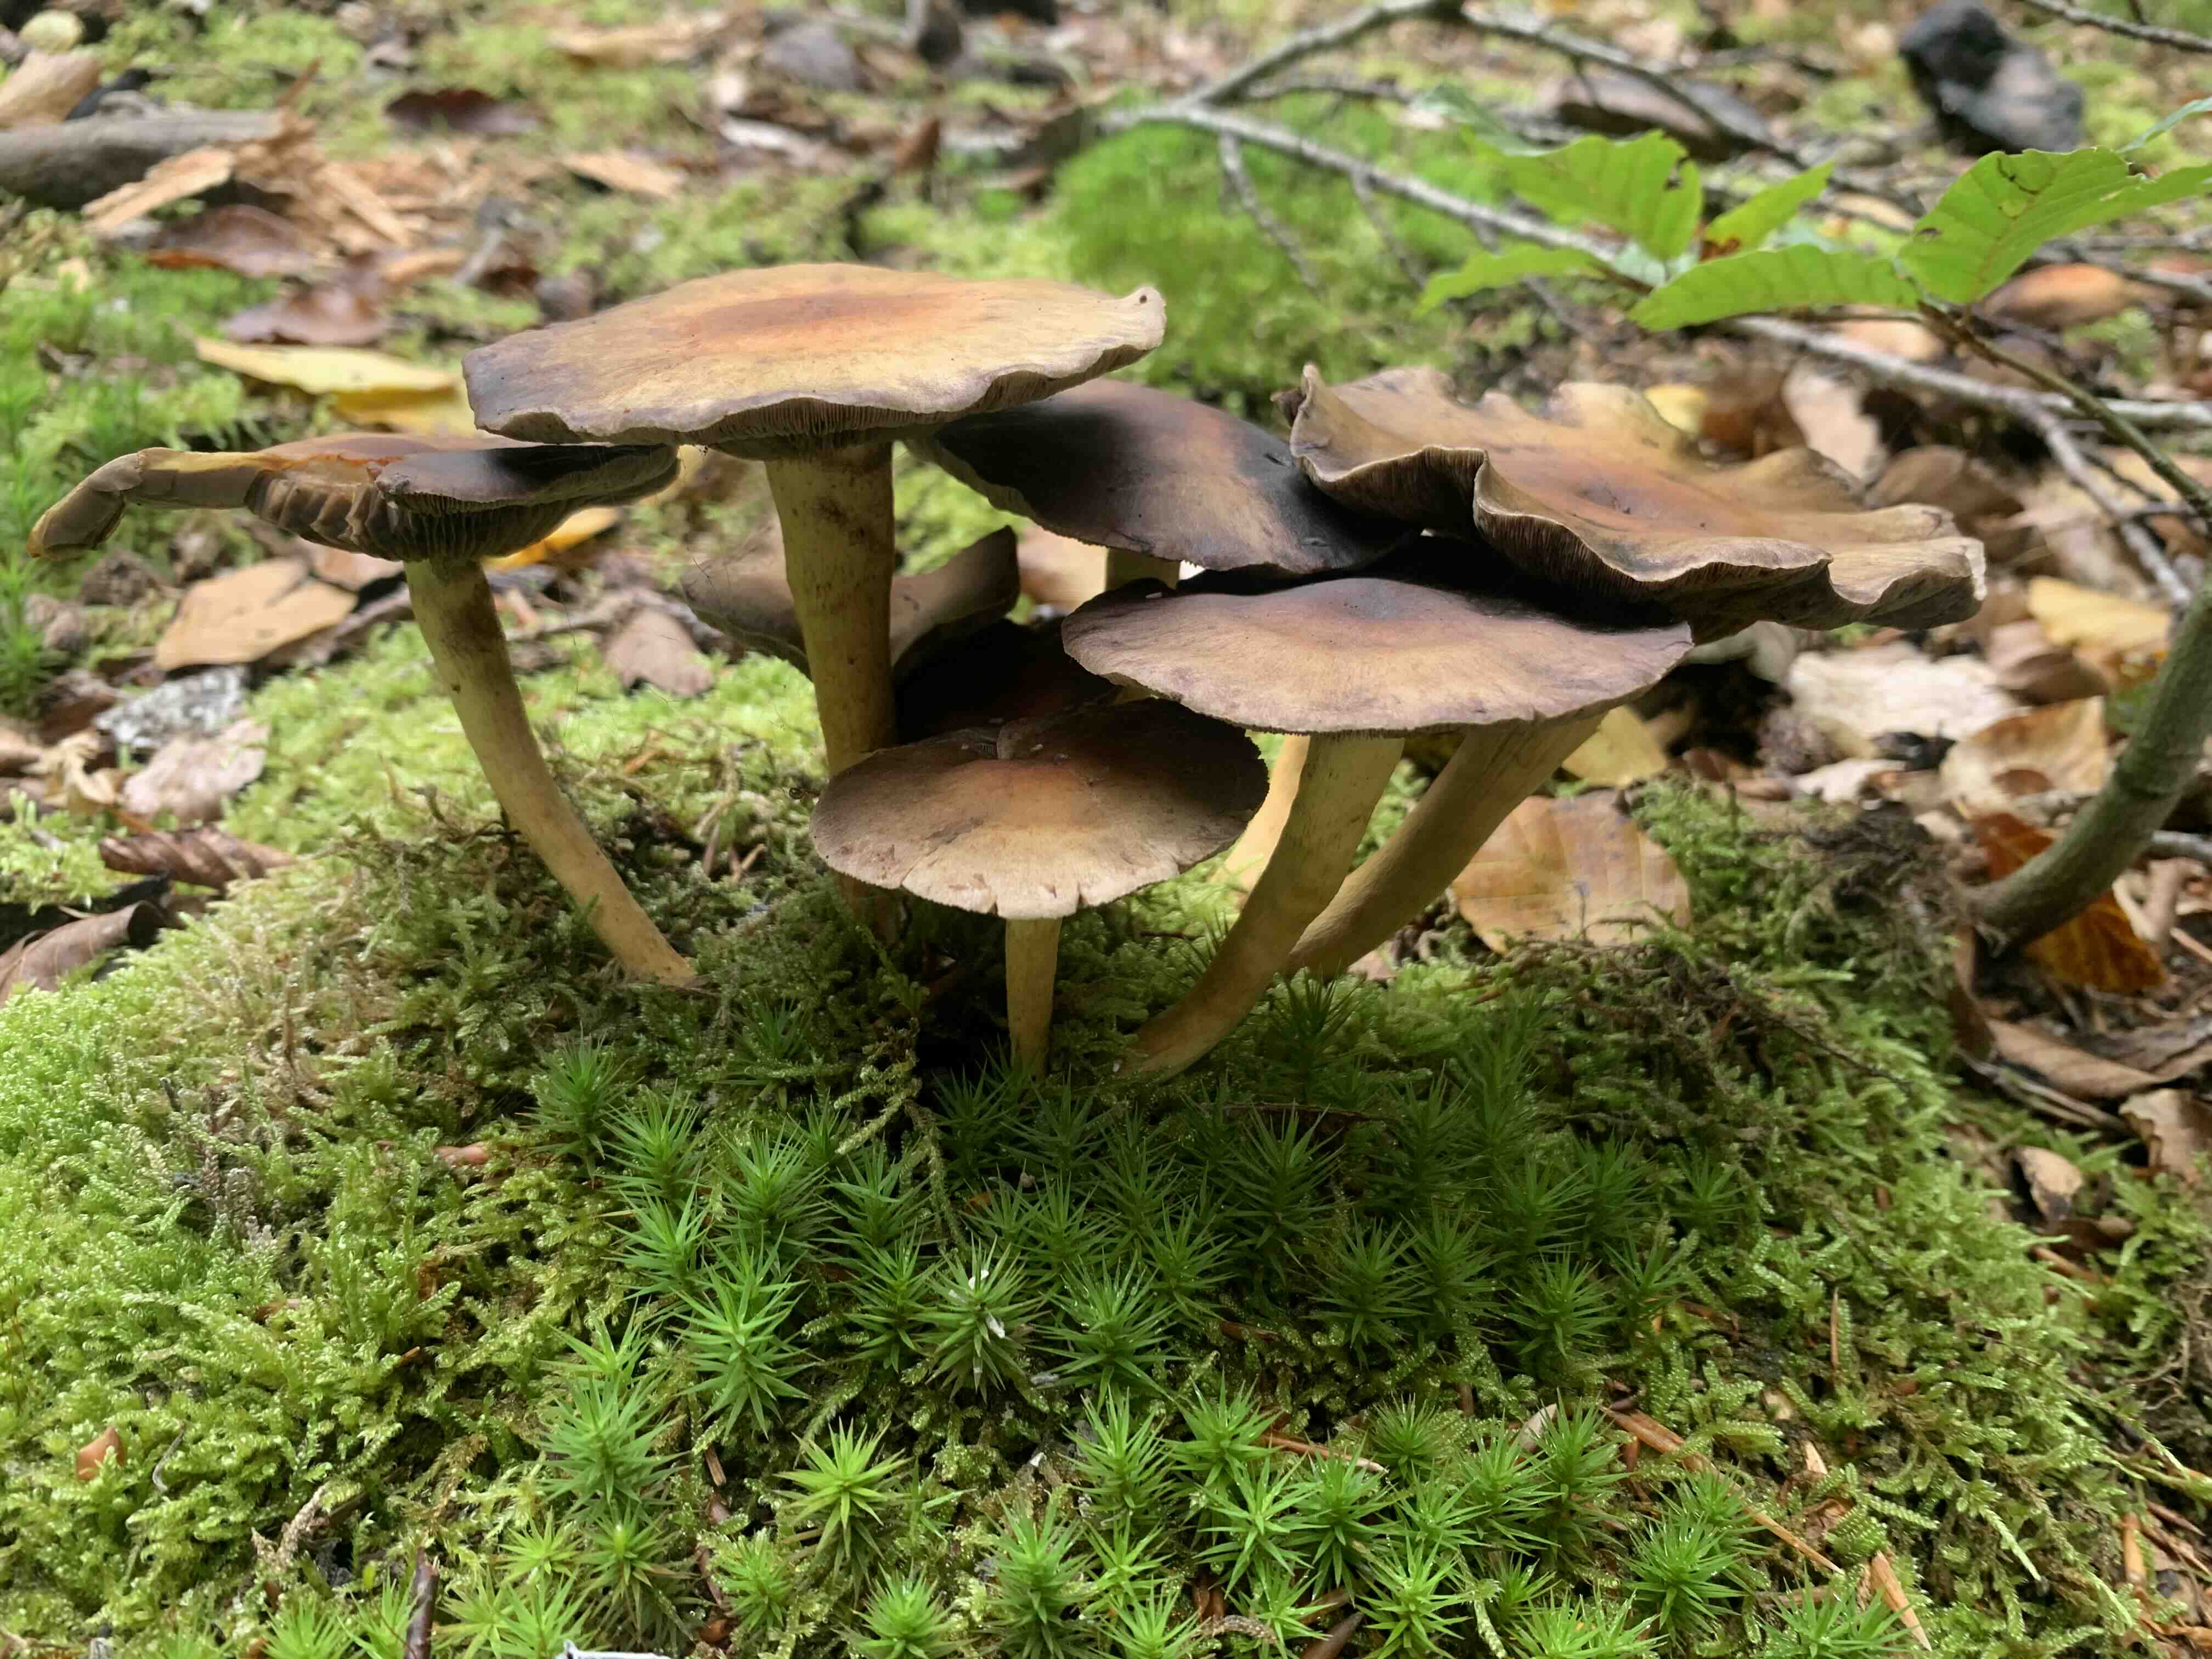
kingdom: Fungi
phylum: Basidiomycota
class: Agaricomycetes
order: Agaricales
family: Strophariaceae
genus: Hypholoma
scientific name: Hypholoma fasciculare
